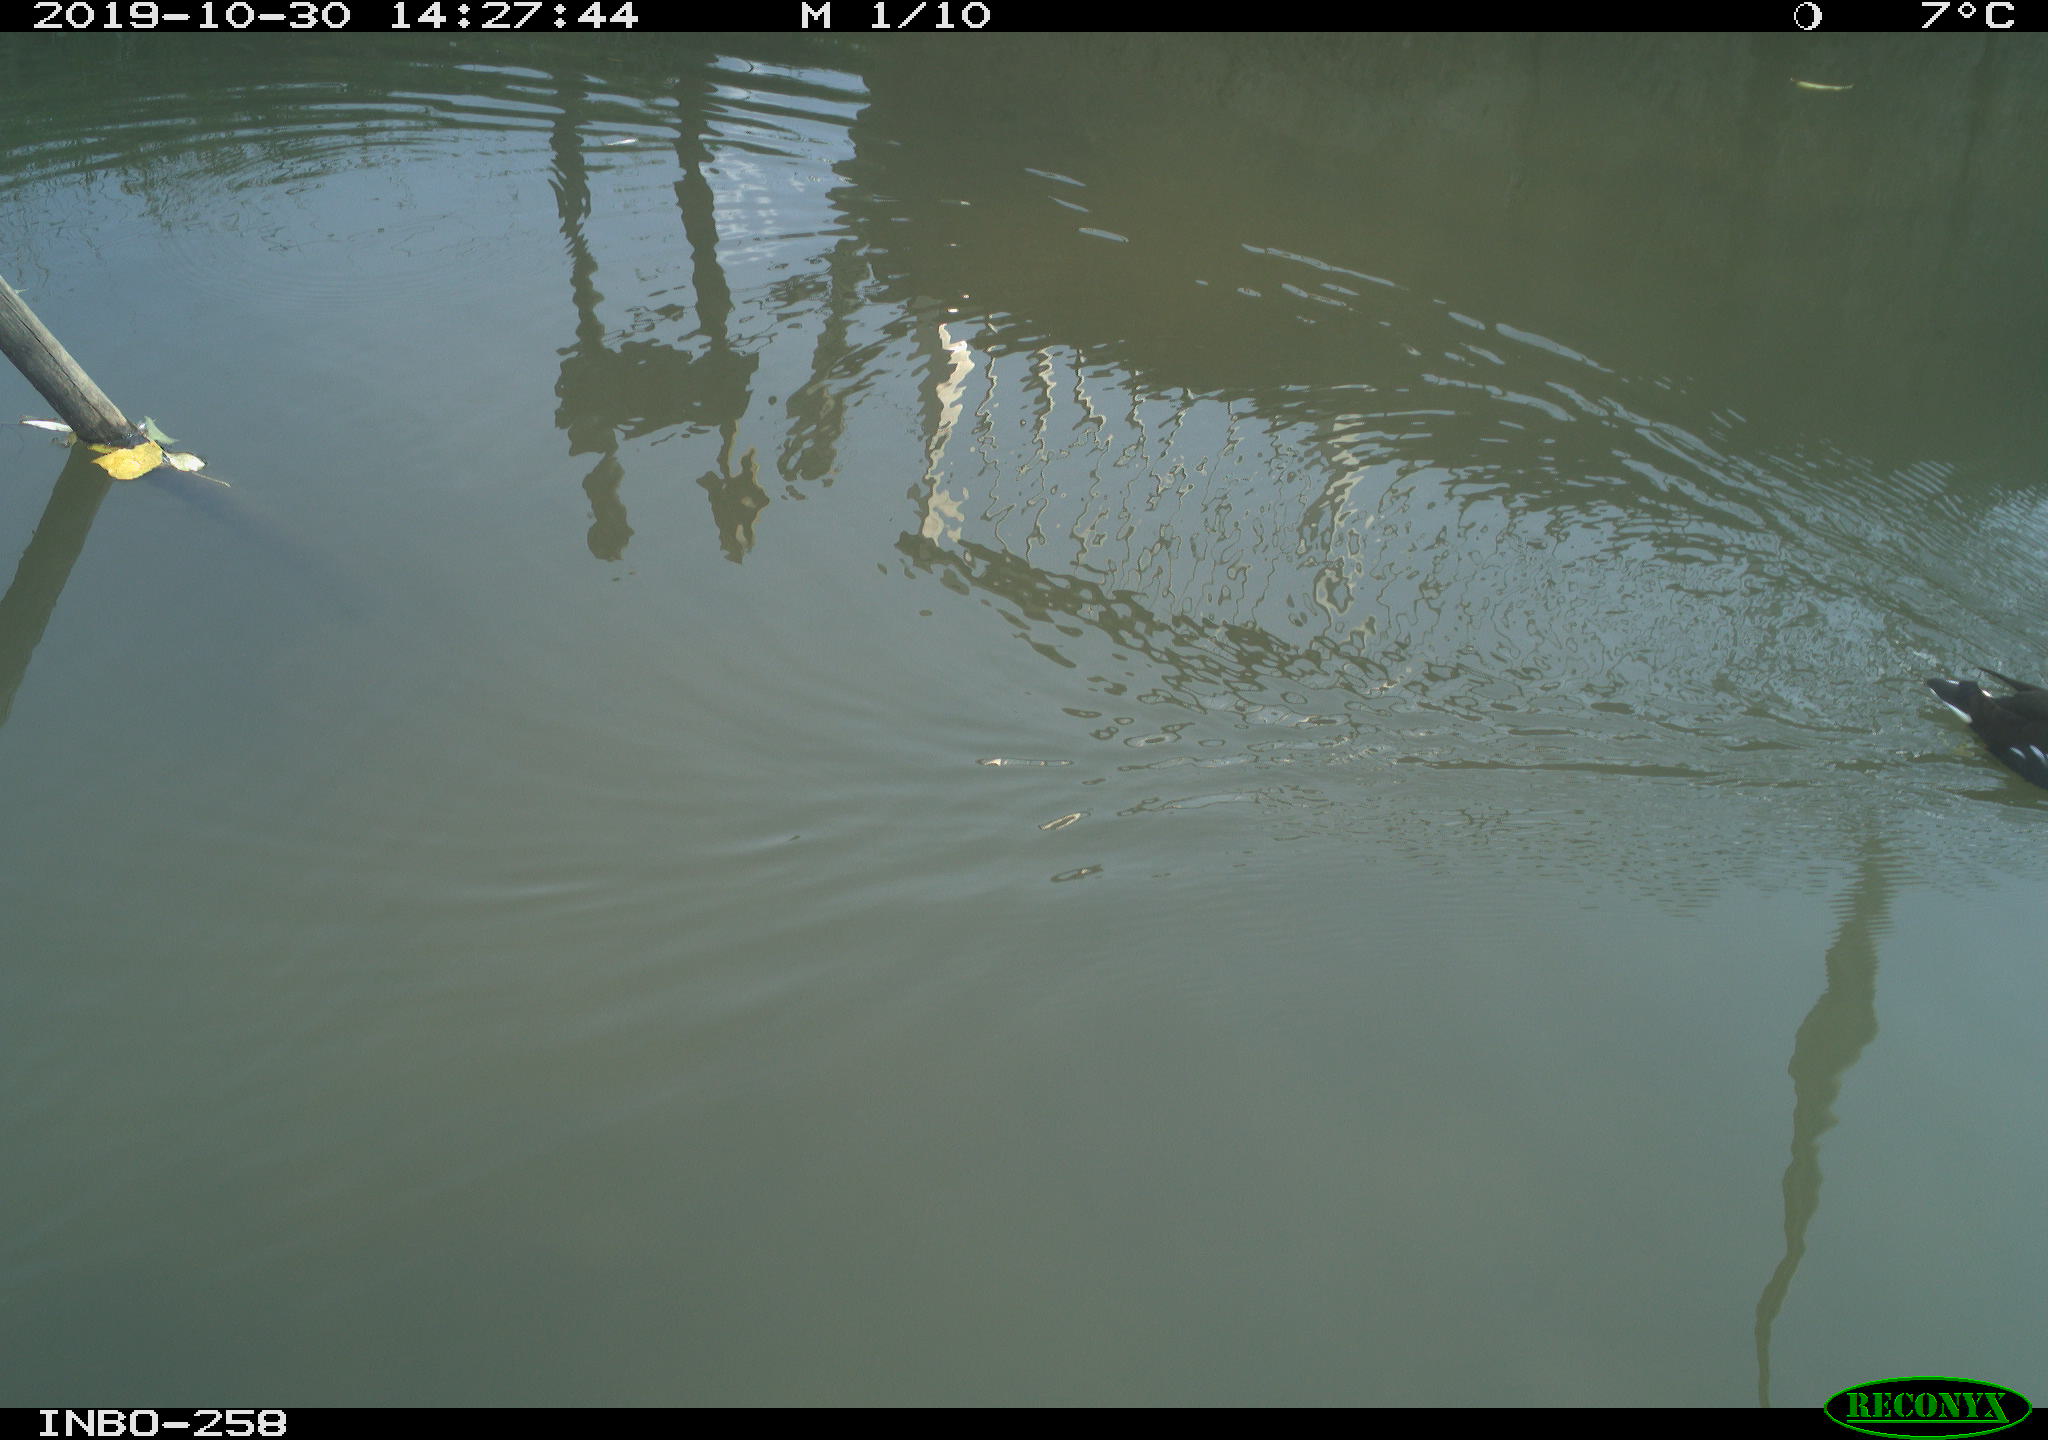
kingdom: Animalia
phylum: Chordata
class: Aves
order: Gruiformes
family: Rallidae
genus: Gallinula
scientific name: Gallinula chloropus
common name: Common moorhen
